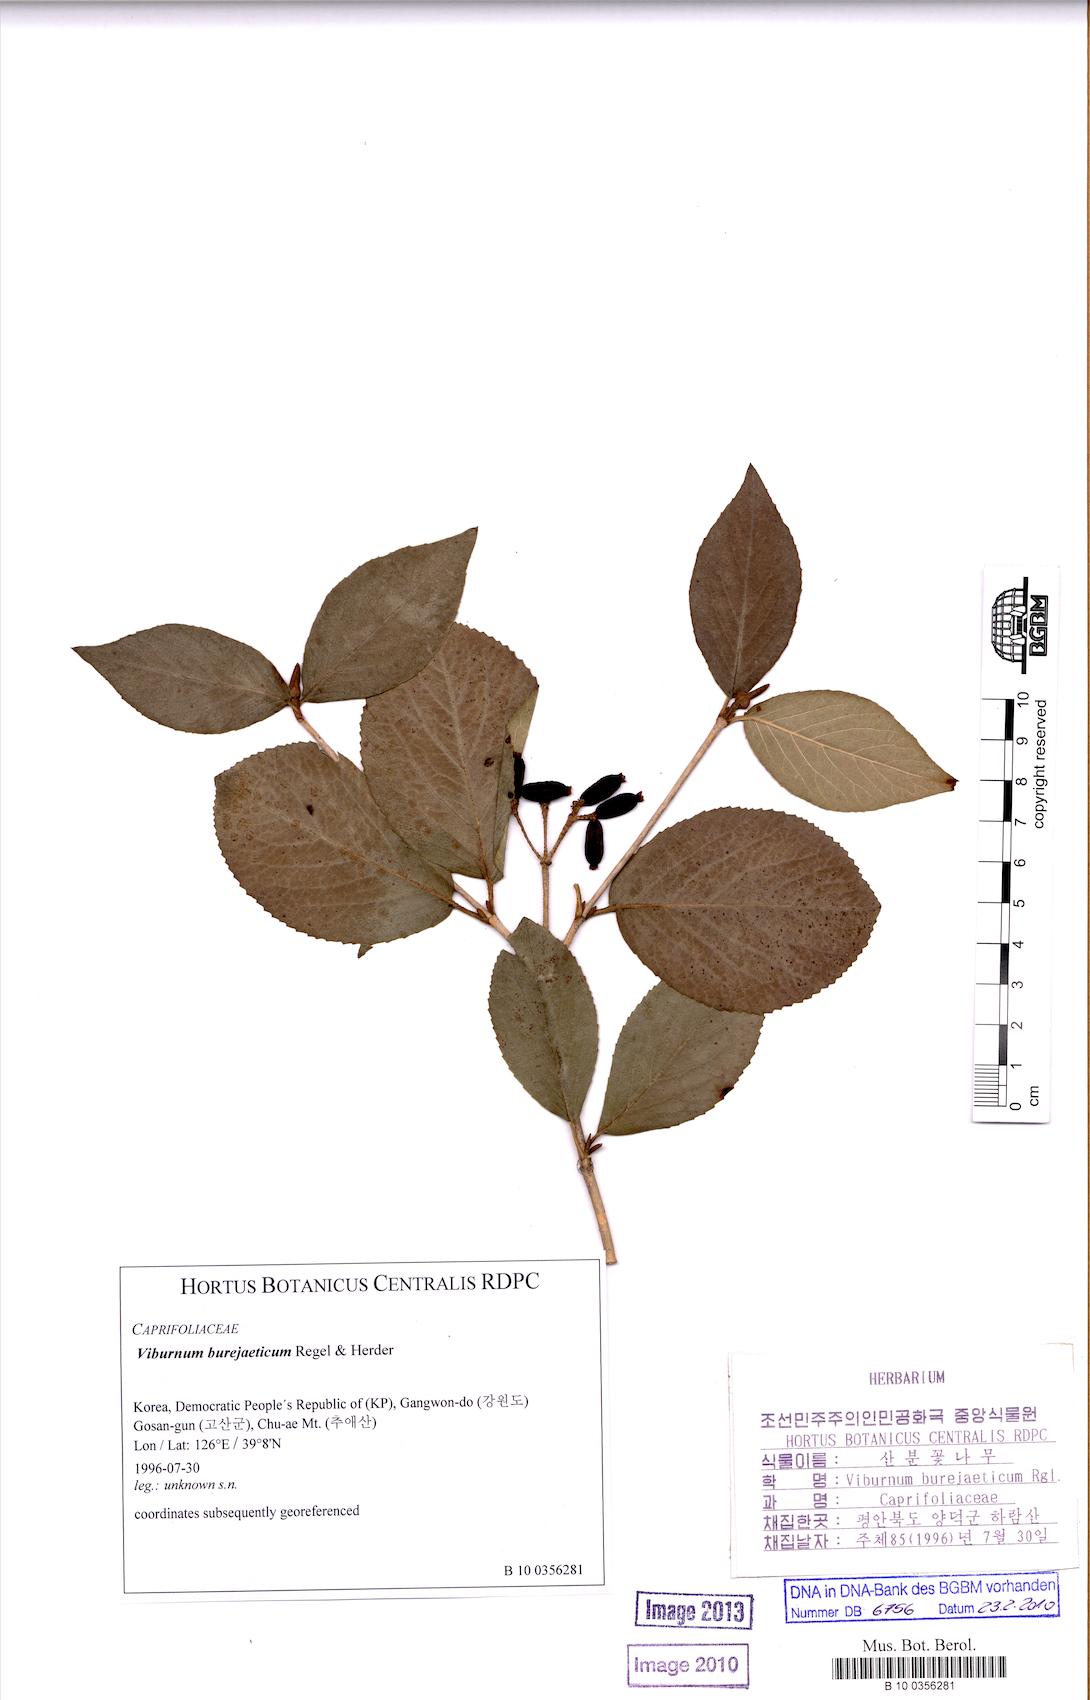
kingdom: Plantae
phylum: Tracheophyta
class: Magnoliopsida
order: Dipsacales
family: Viburnaceae
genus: Viburnum
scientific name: Viburnum burejaeticum
